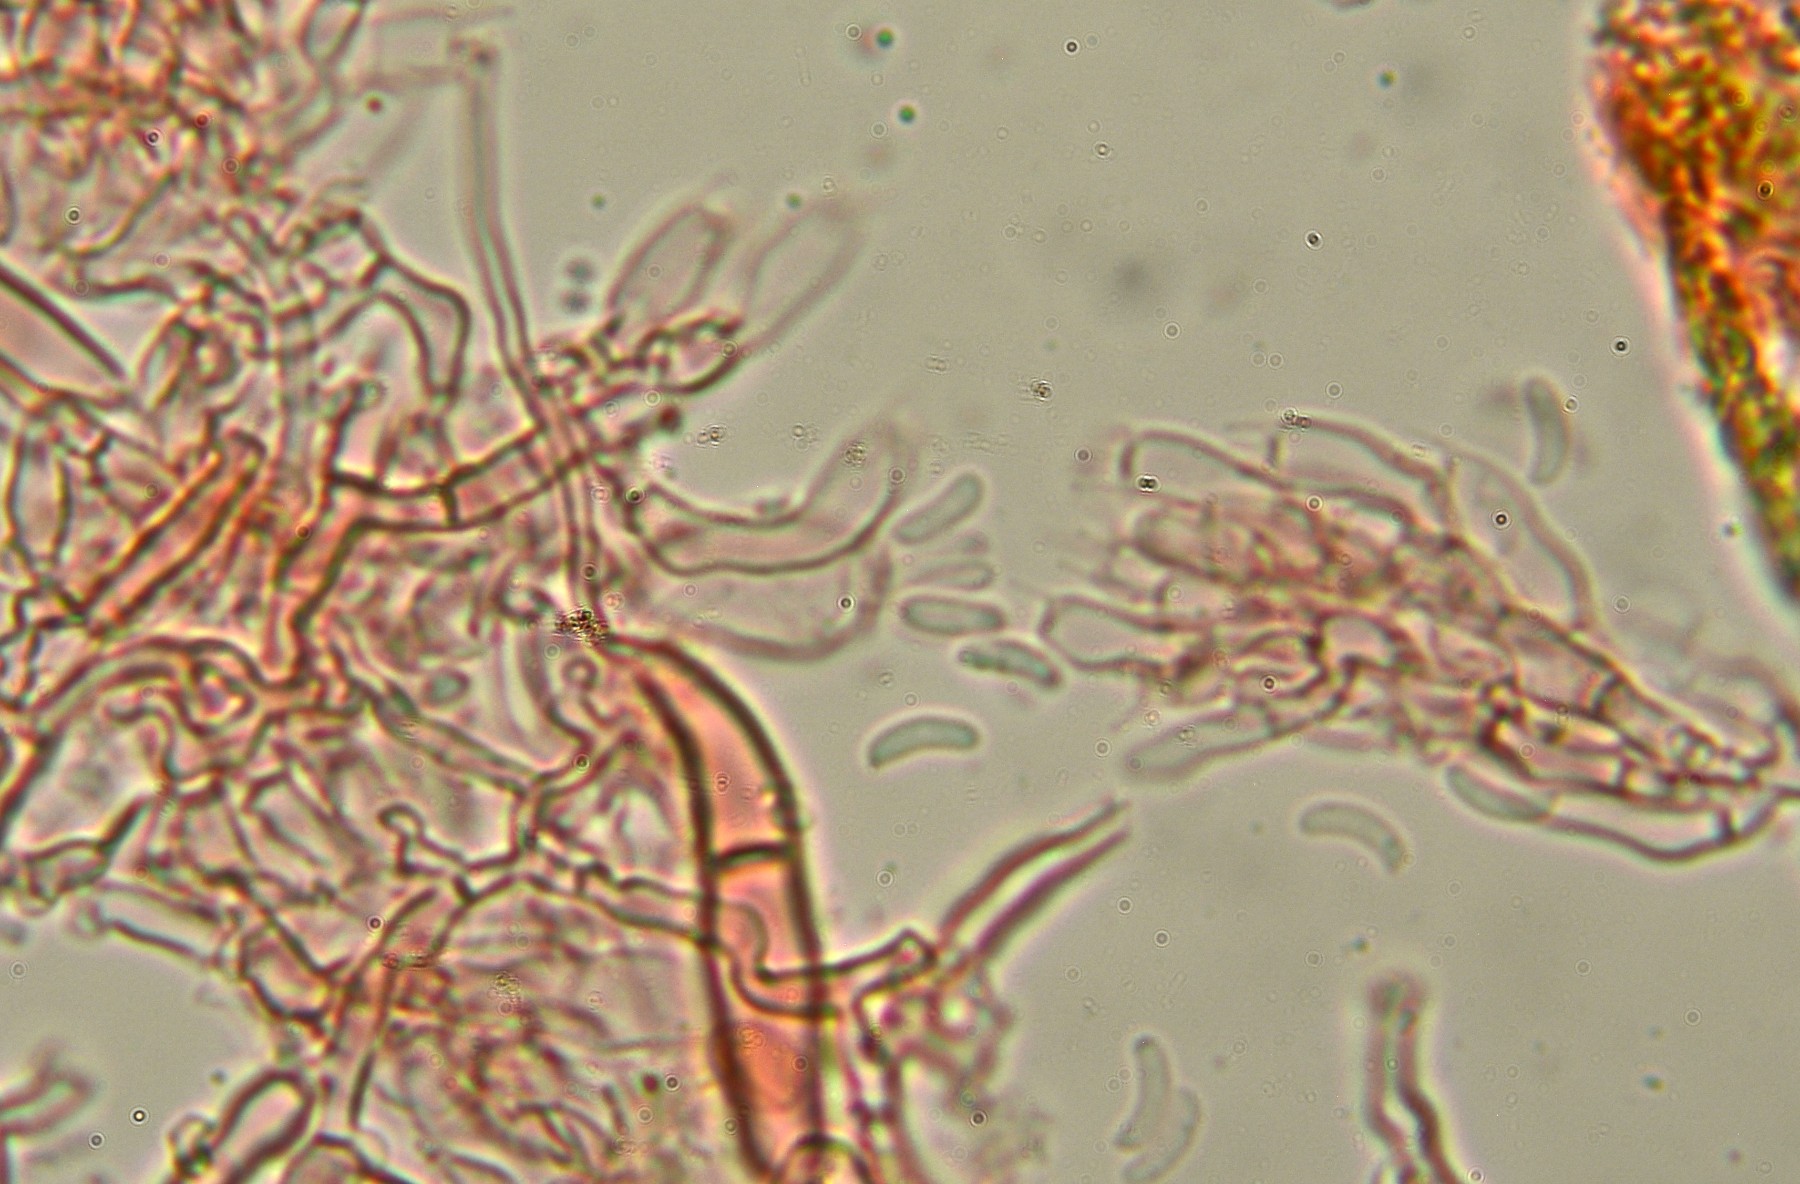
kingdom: Fungi
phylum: Basidiomycota
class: Agaricomycetes
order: Hymenochaetales
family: Schizoporaceae
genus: Alutaceodontia
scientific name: Alutaceodontia alutacea
